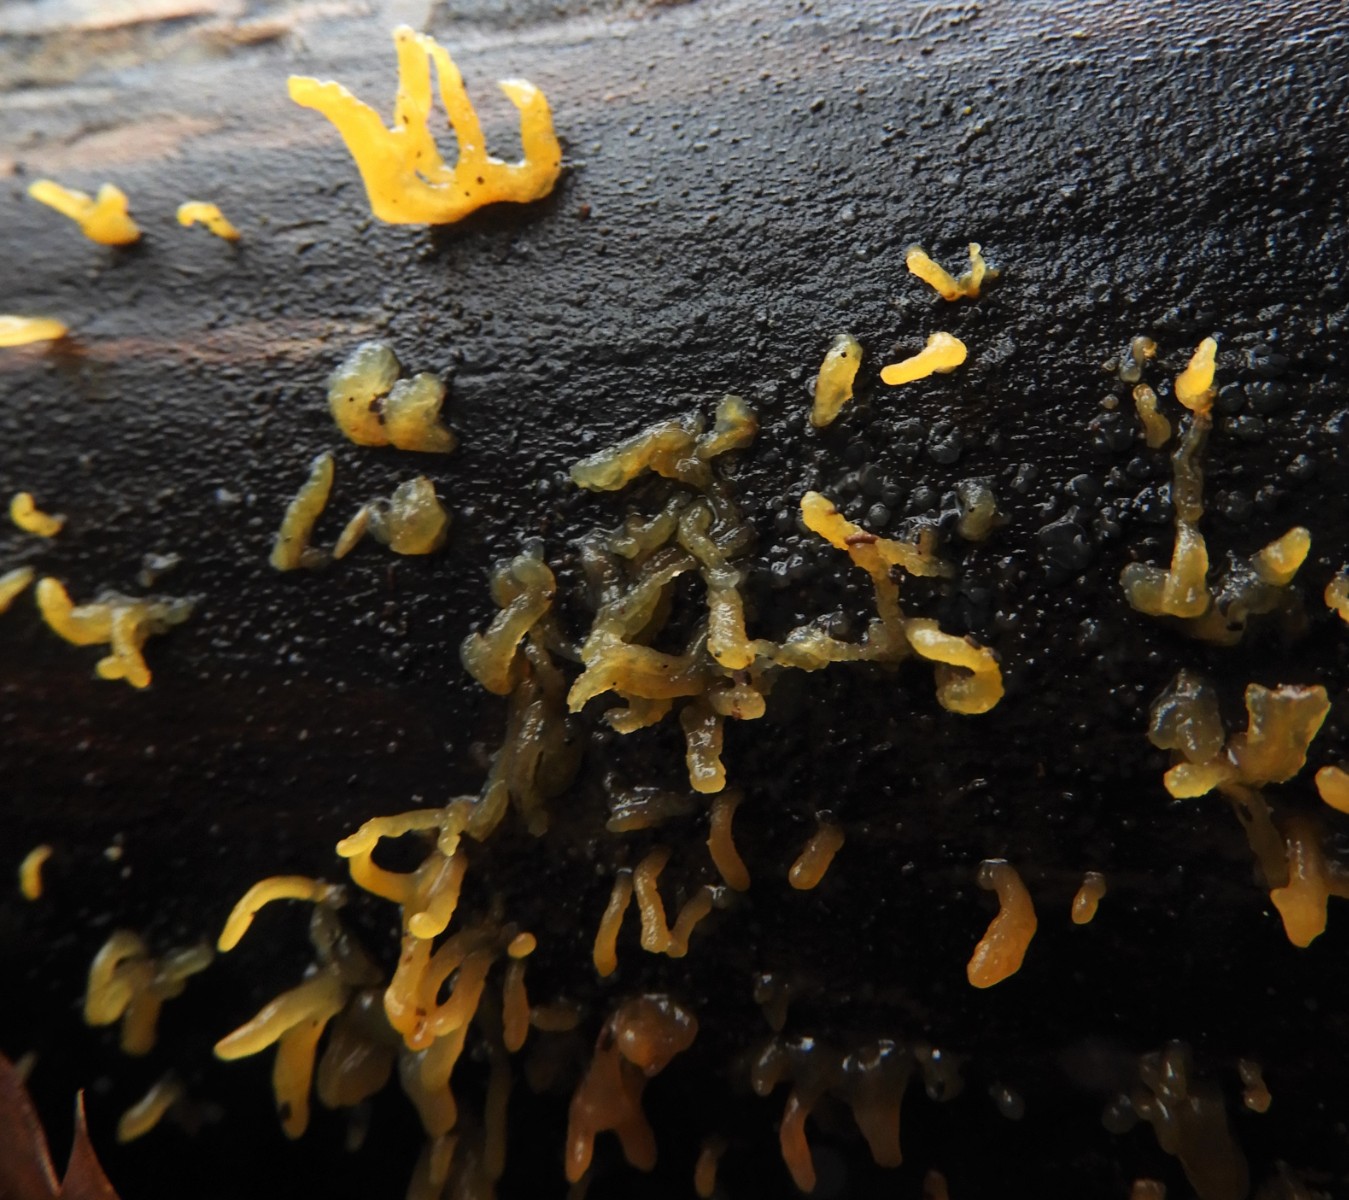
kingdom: Fungi
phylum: Basidiomycota
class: Dacrymycetes
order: Dacrymycetales
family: Dacrymycetaceae
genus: Calocera
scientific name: Calocera cornea
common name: liden guldgaffel
